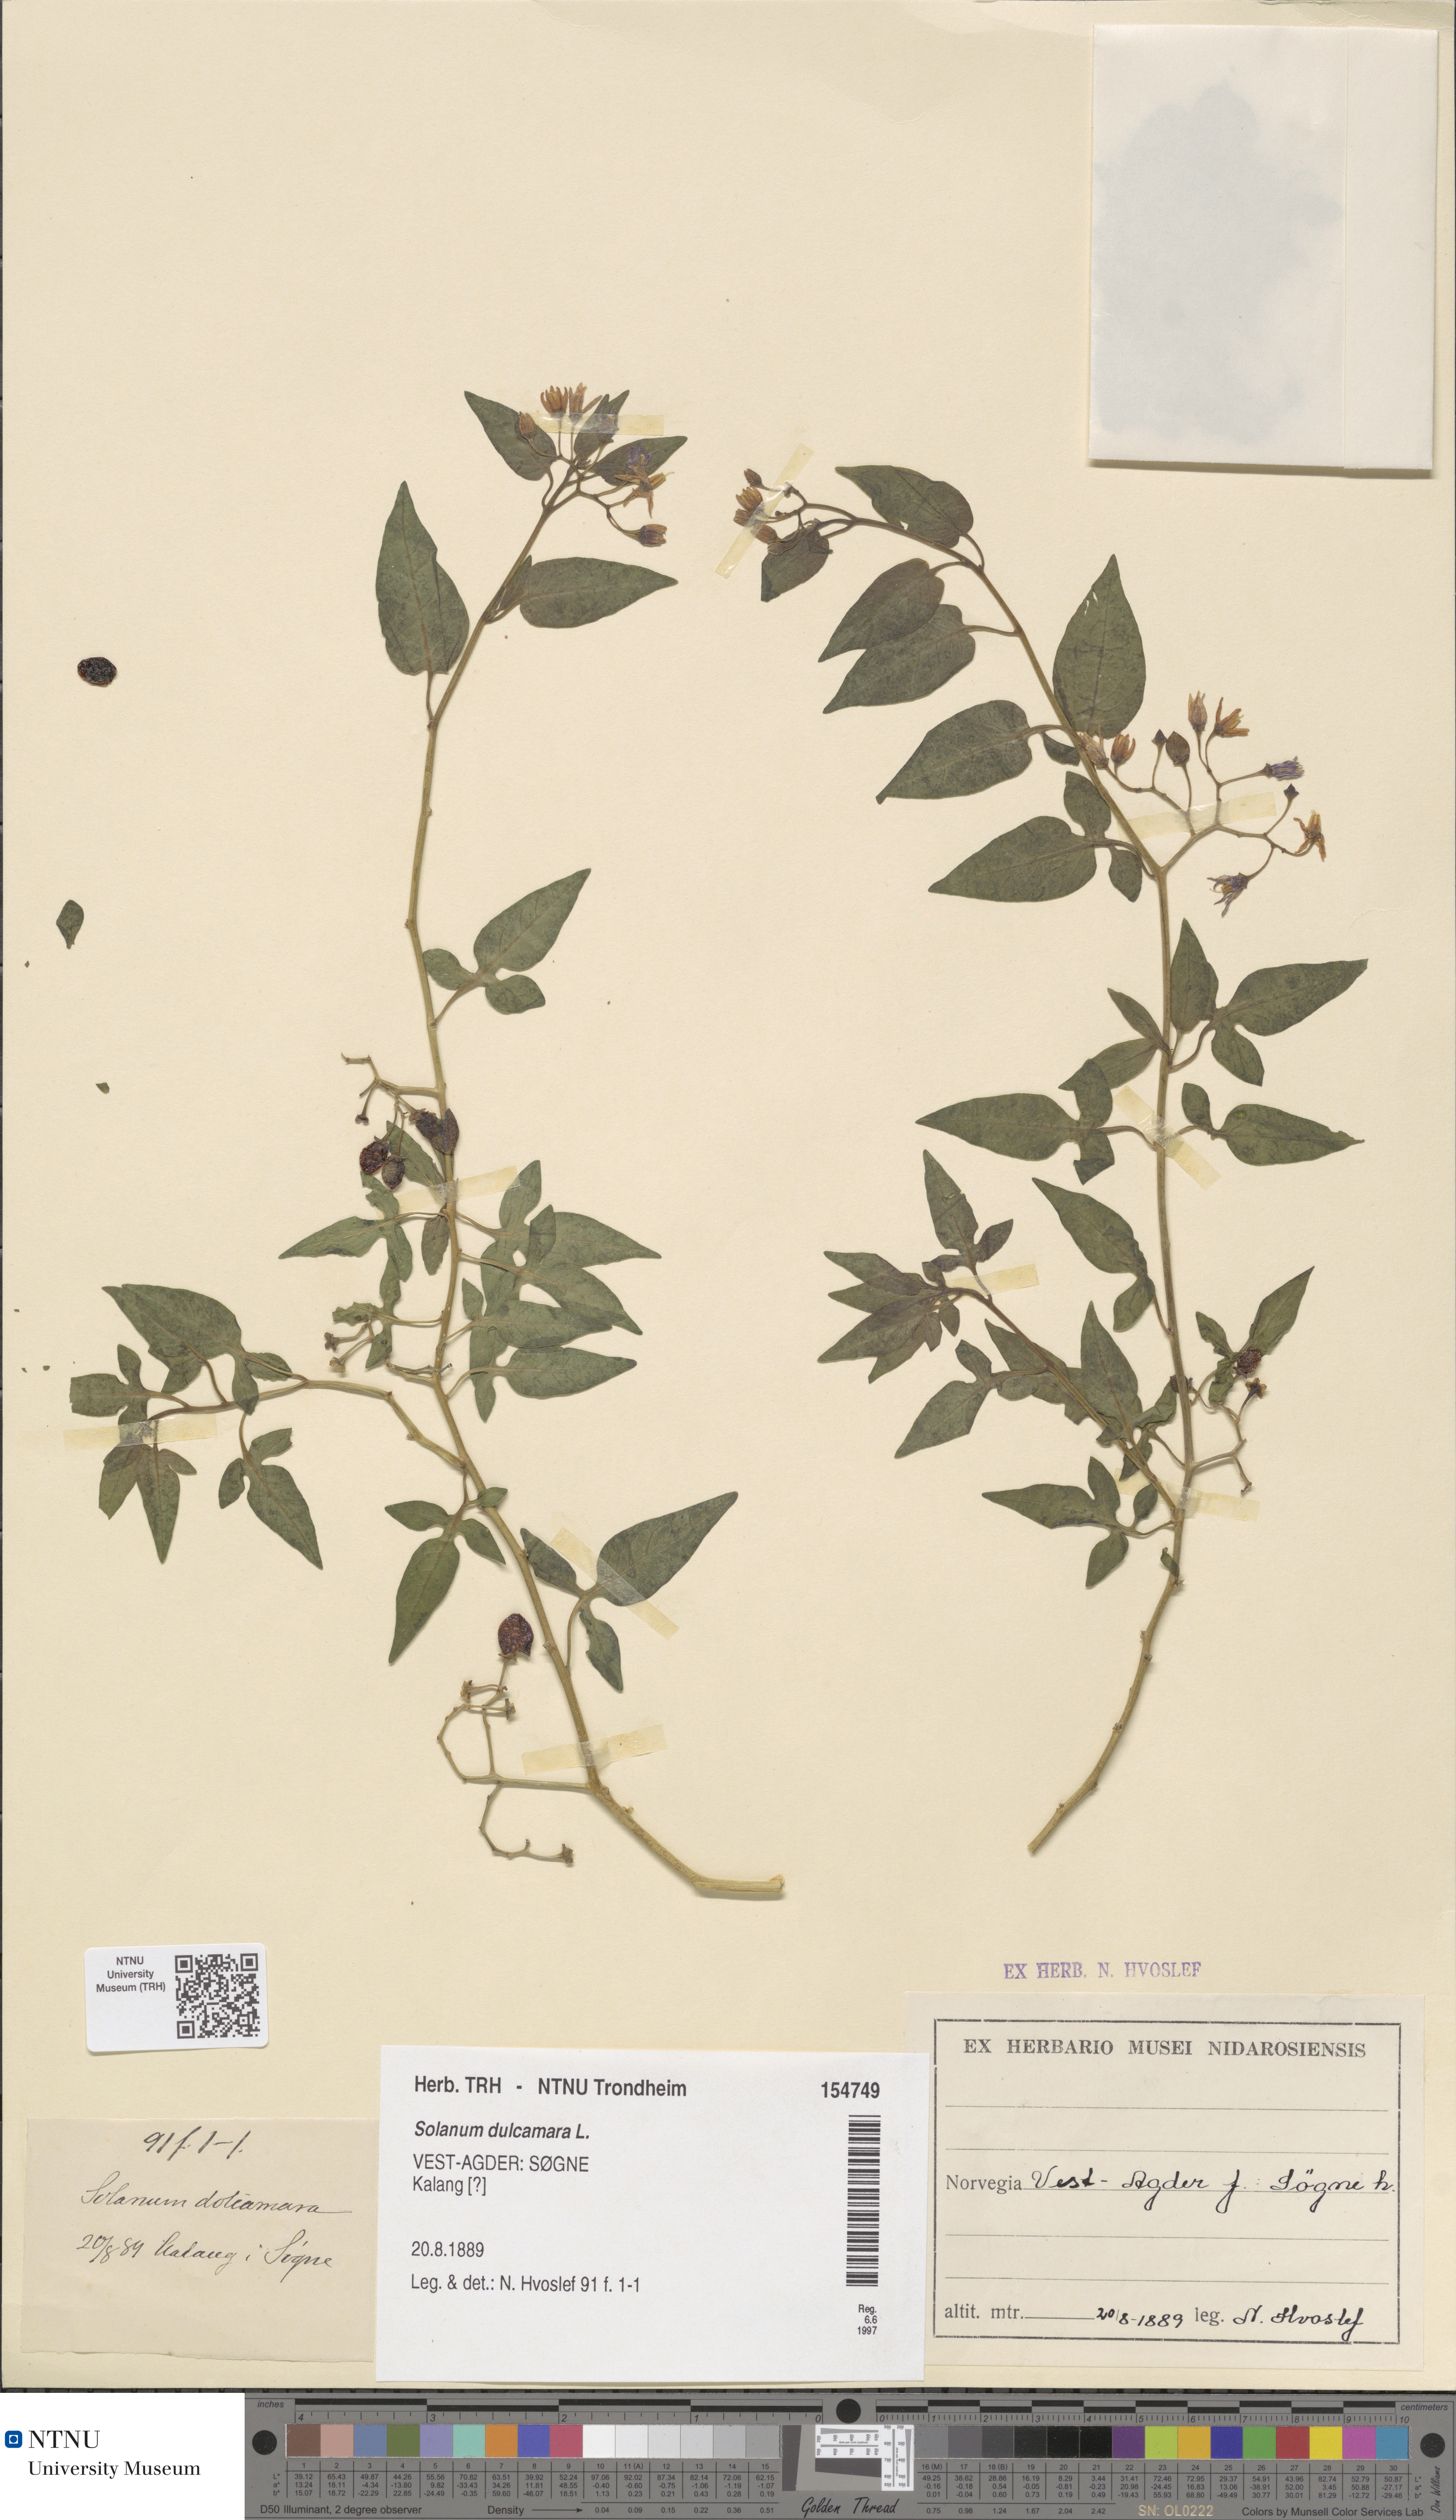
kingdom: Plantae
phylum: Tracheophyta
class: Magnoliopsida
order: Solanales
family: Solanaceae
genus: Solanum
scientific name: Solanum dulcamara
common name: Climbing nightshade
